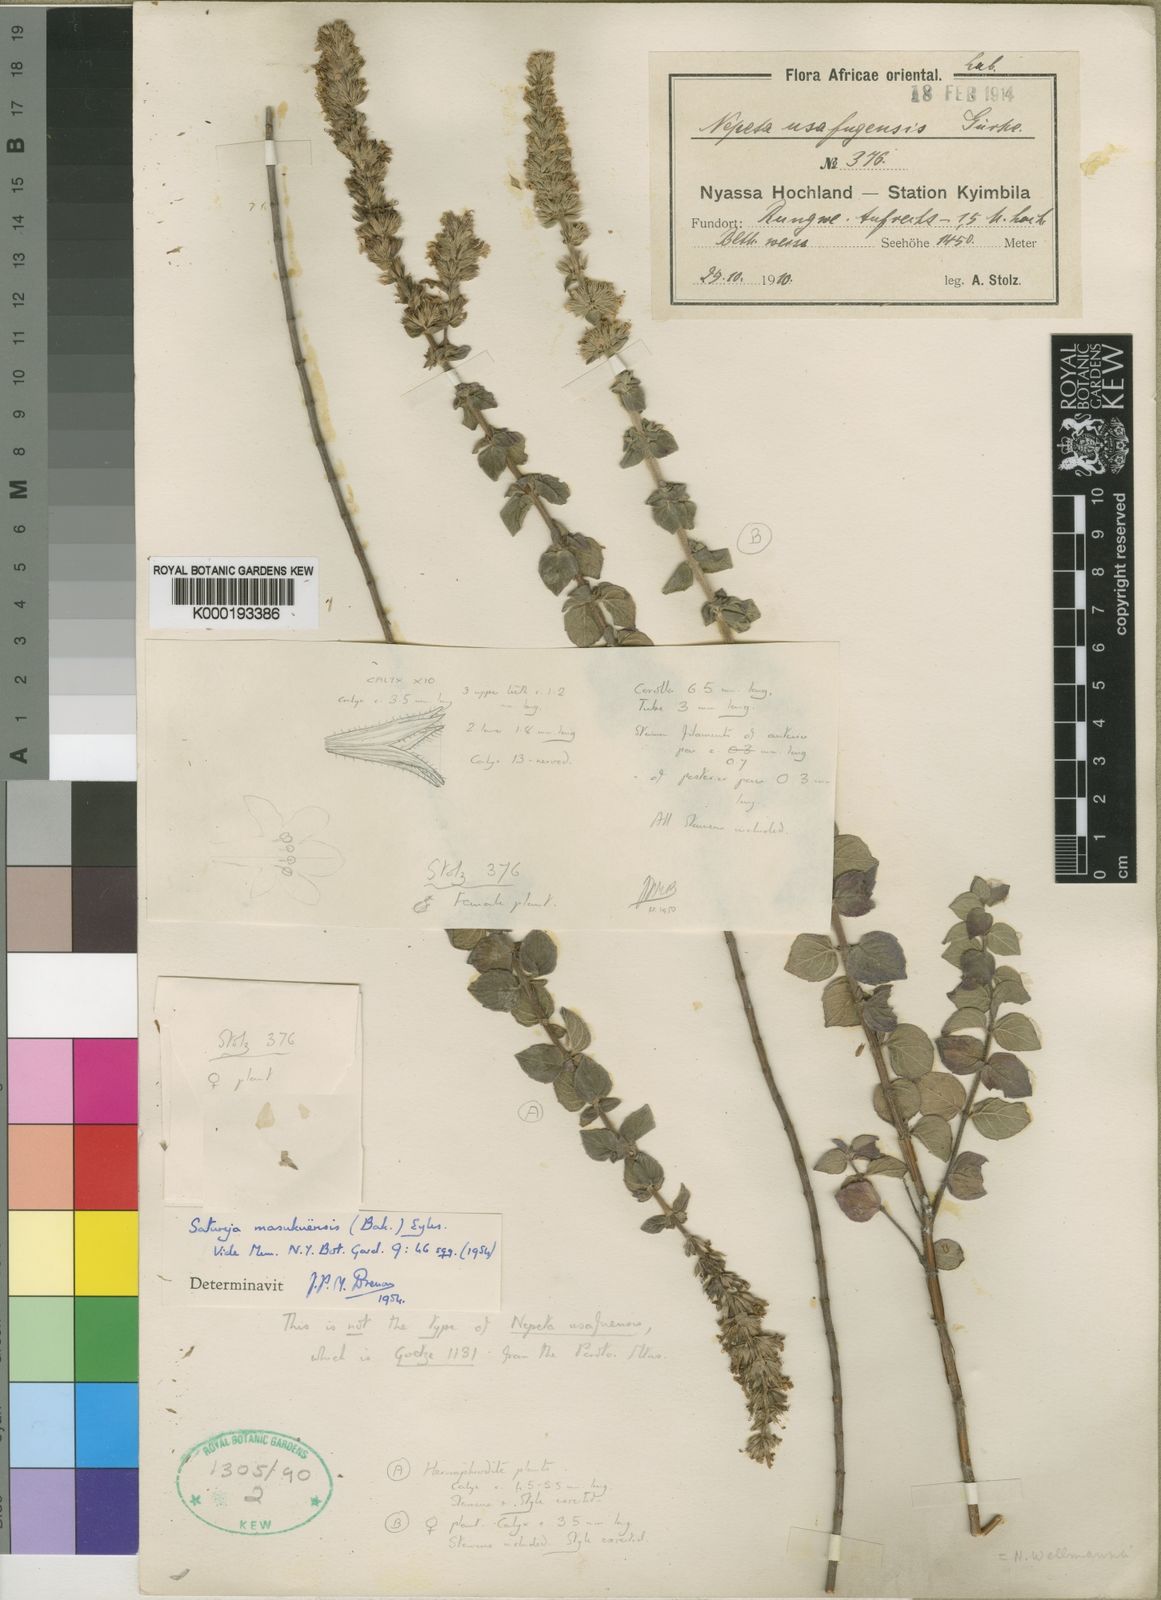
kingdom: Plantae
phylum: Tracheophyta
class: Magnoliopsida
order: Lamiales
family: Lamiaceae
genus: Micromeria
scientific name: Micromeria
